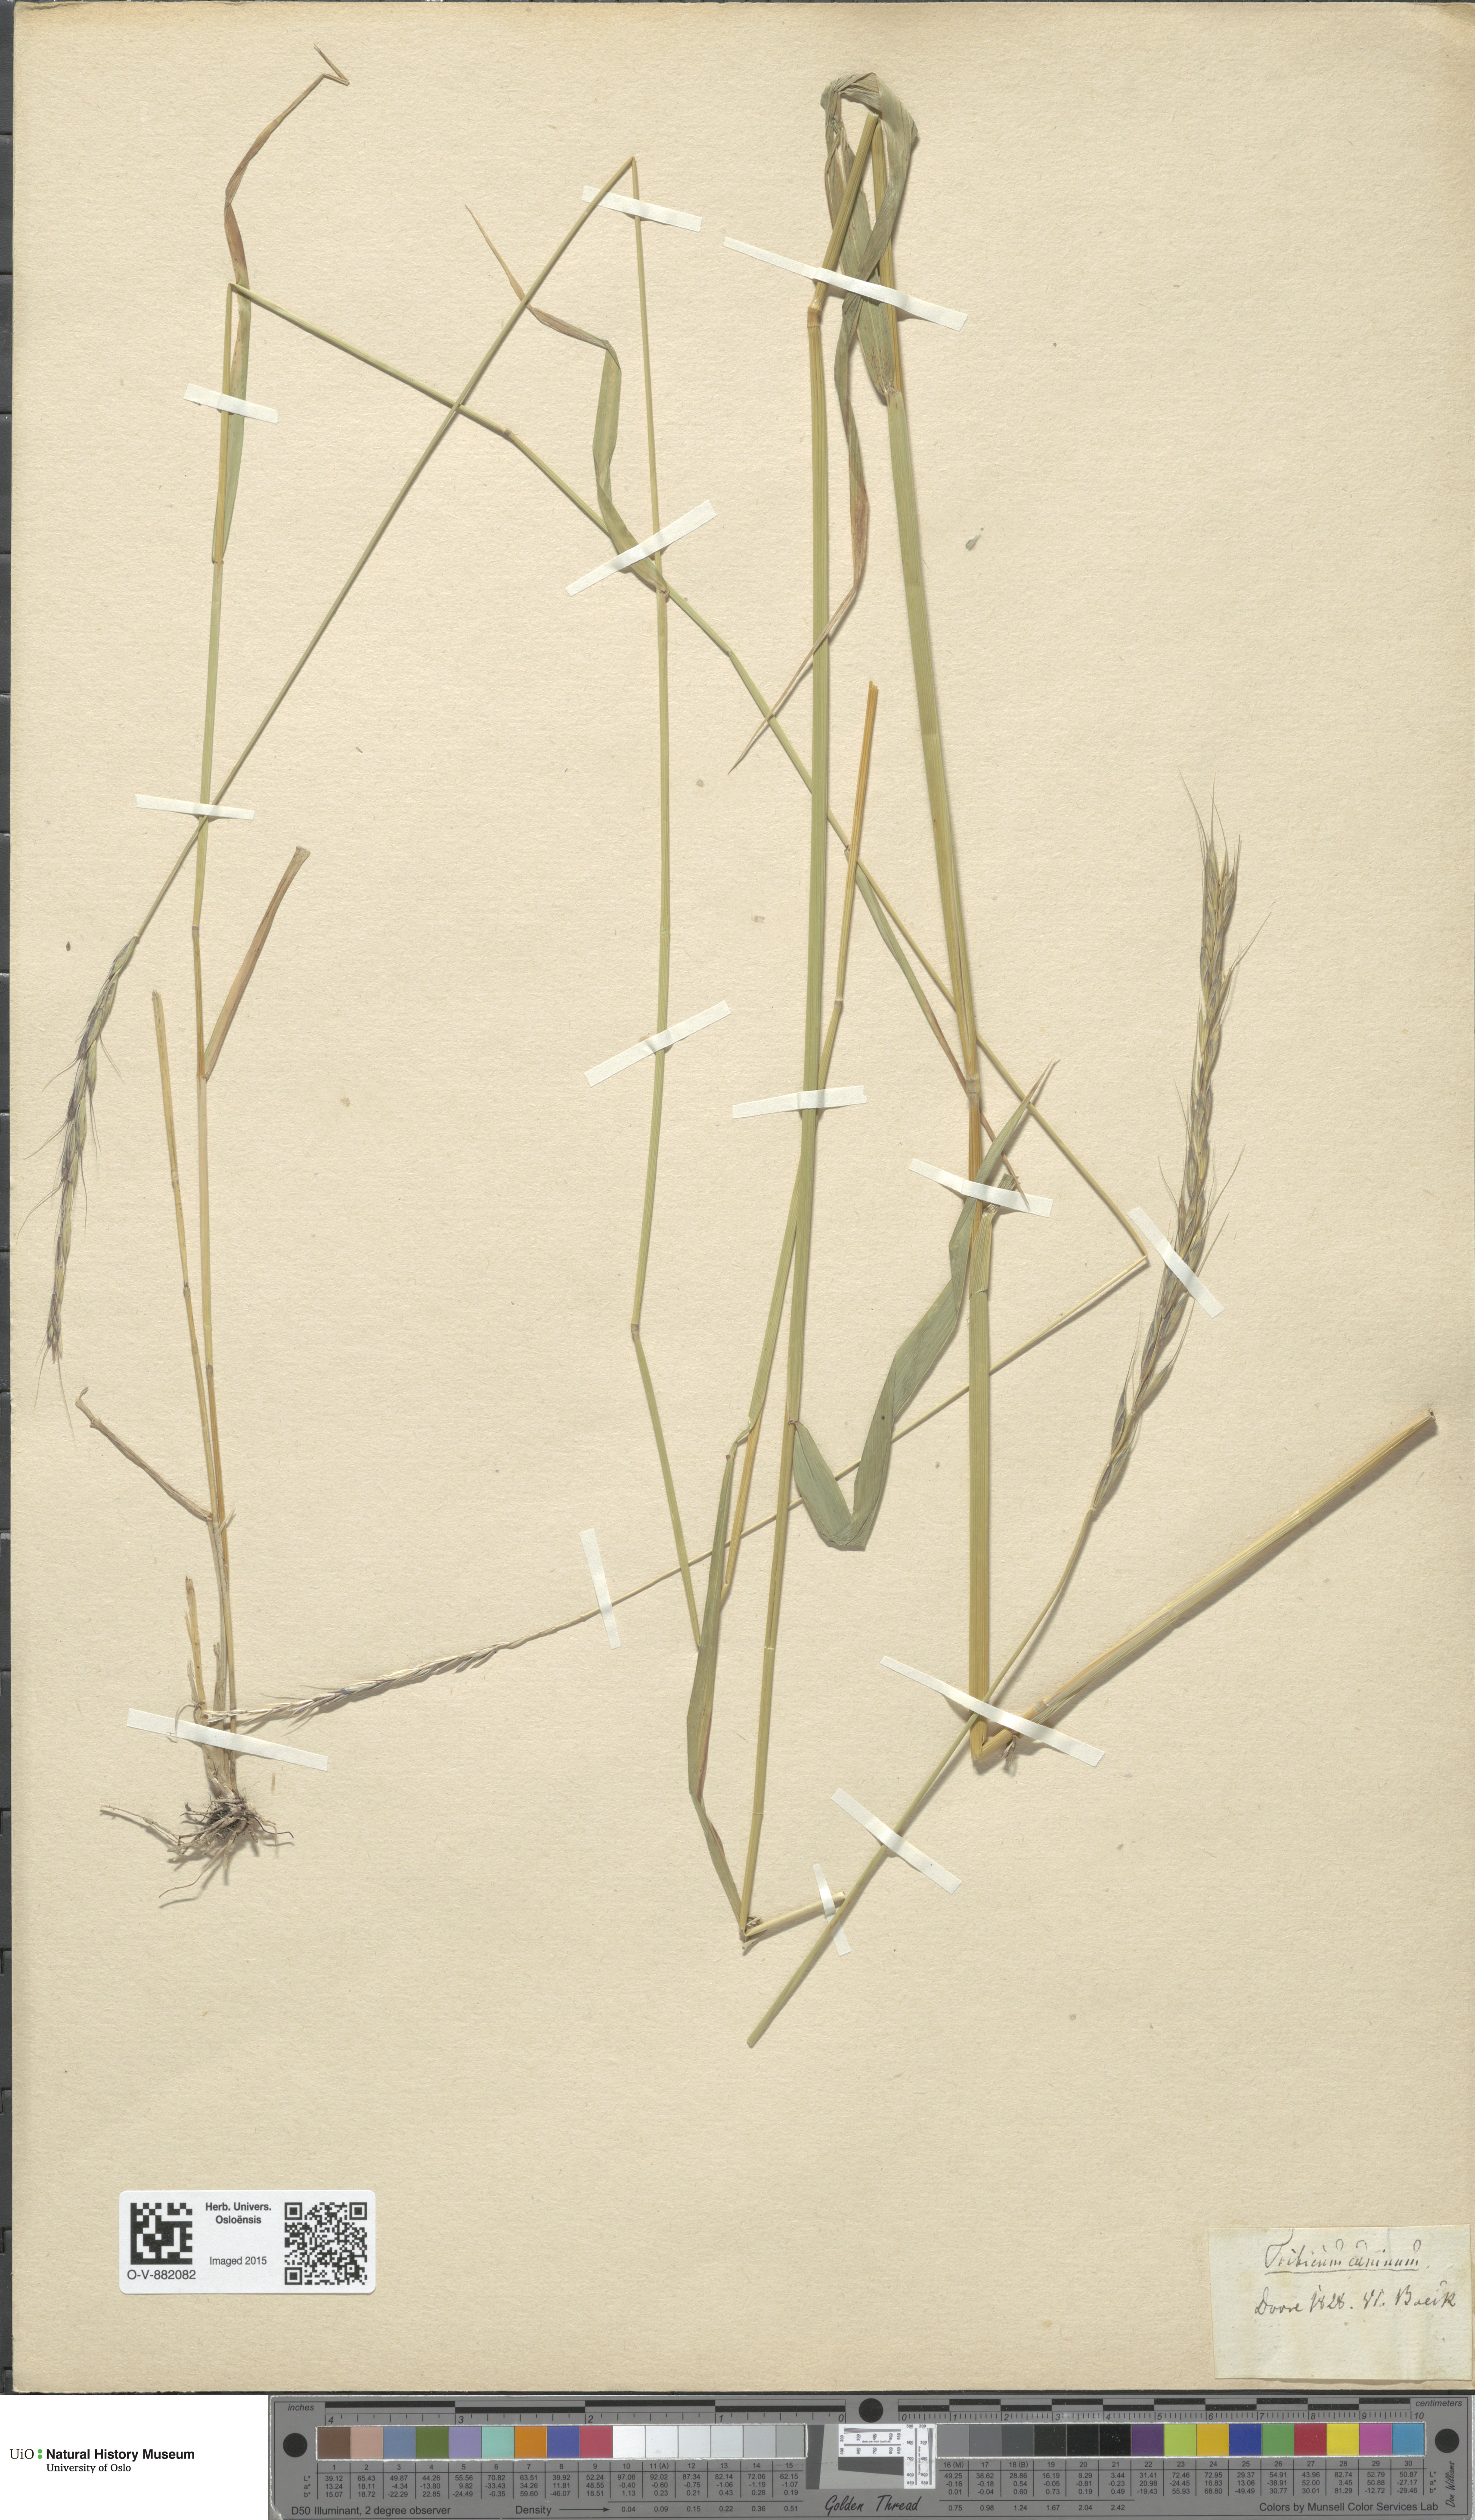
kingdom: Plantae
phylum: Tracheophyta
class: Liliopsida
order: Poales
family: Poaceae
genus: Elymus
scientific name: Elymus caninus
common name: Bearded couch
